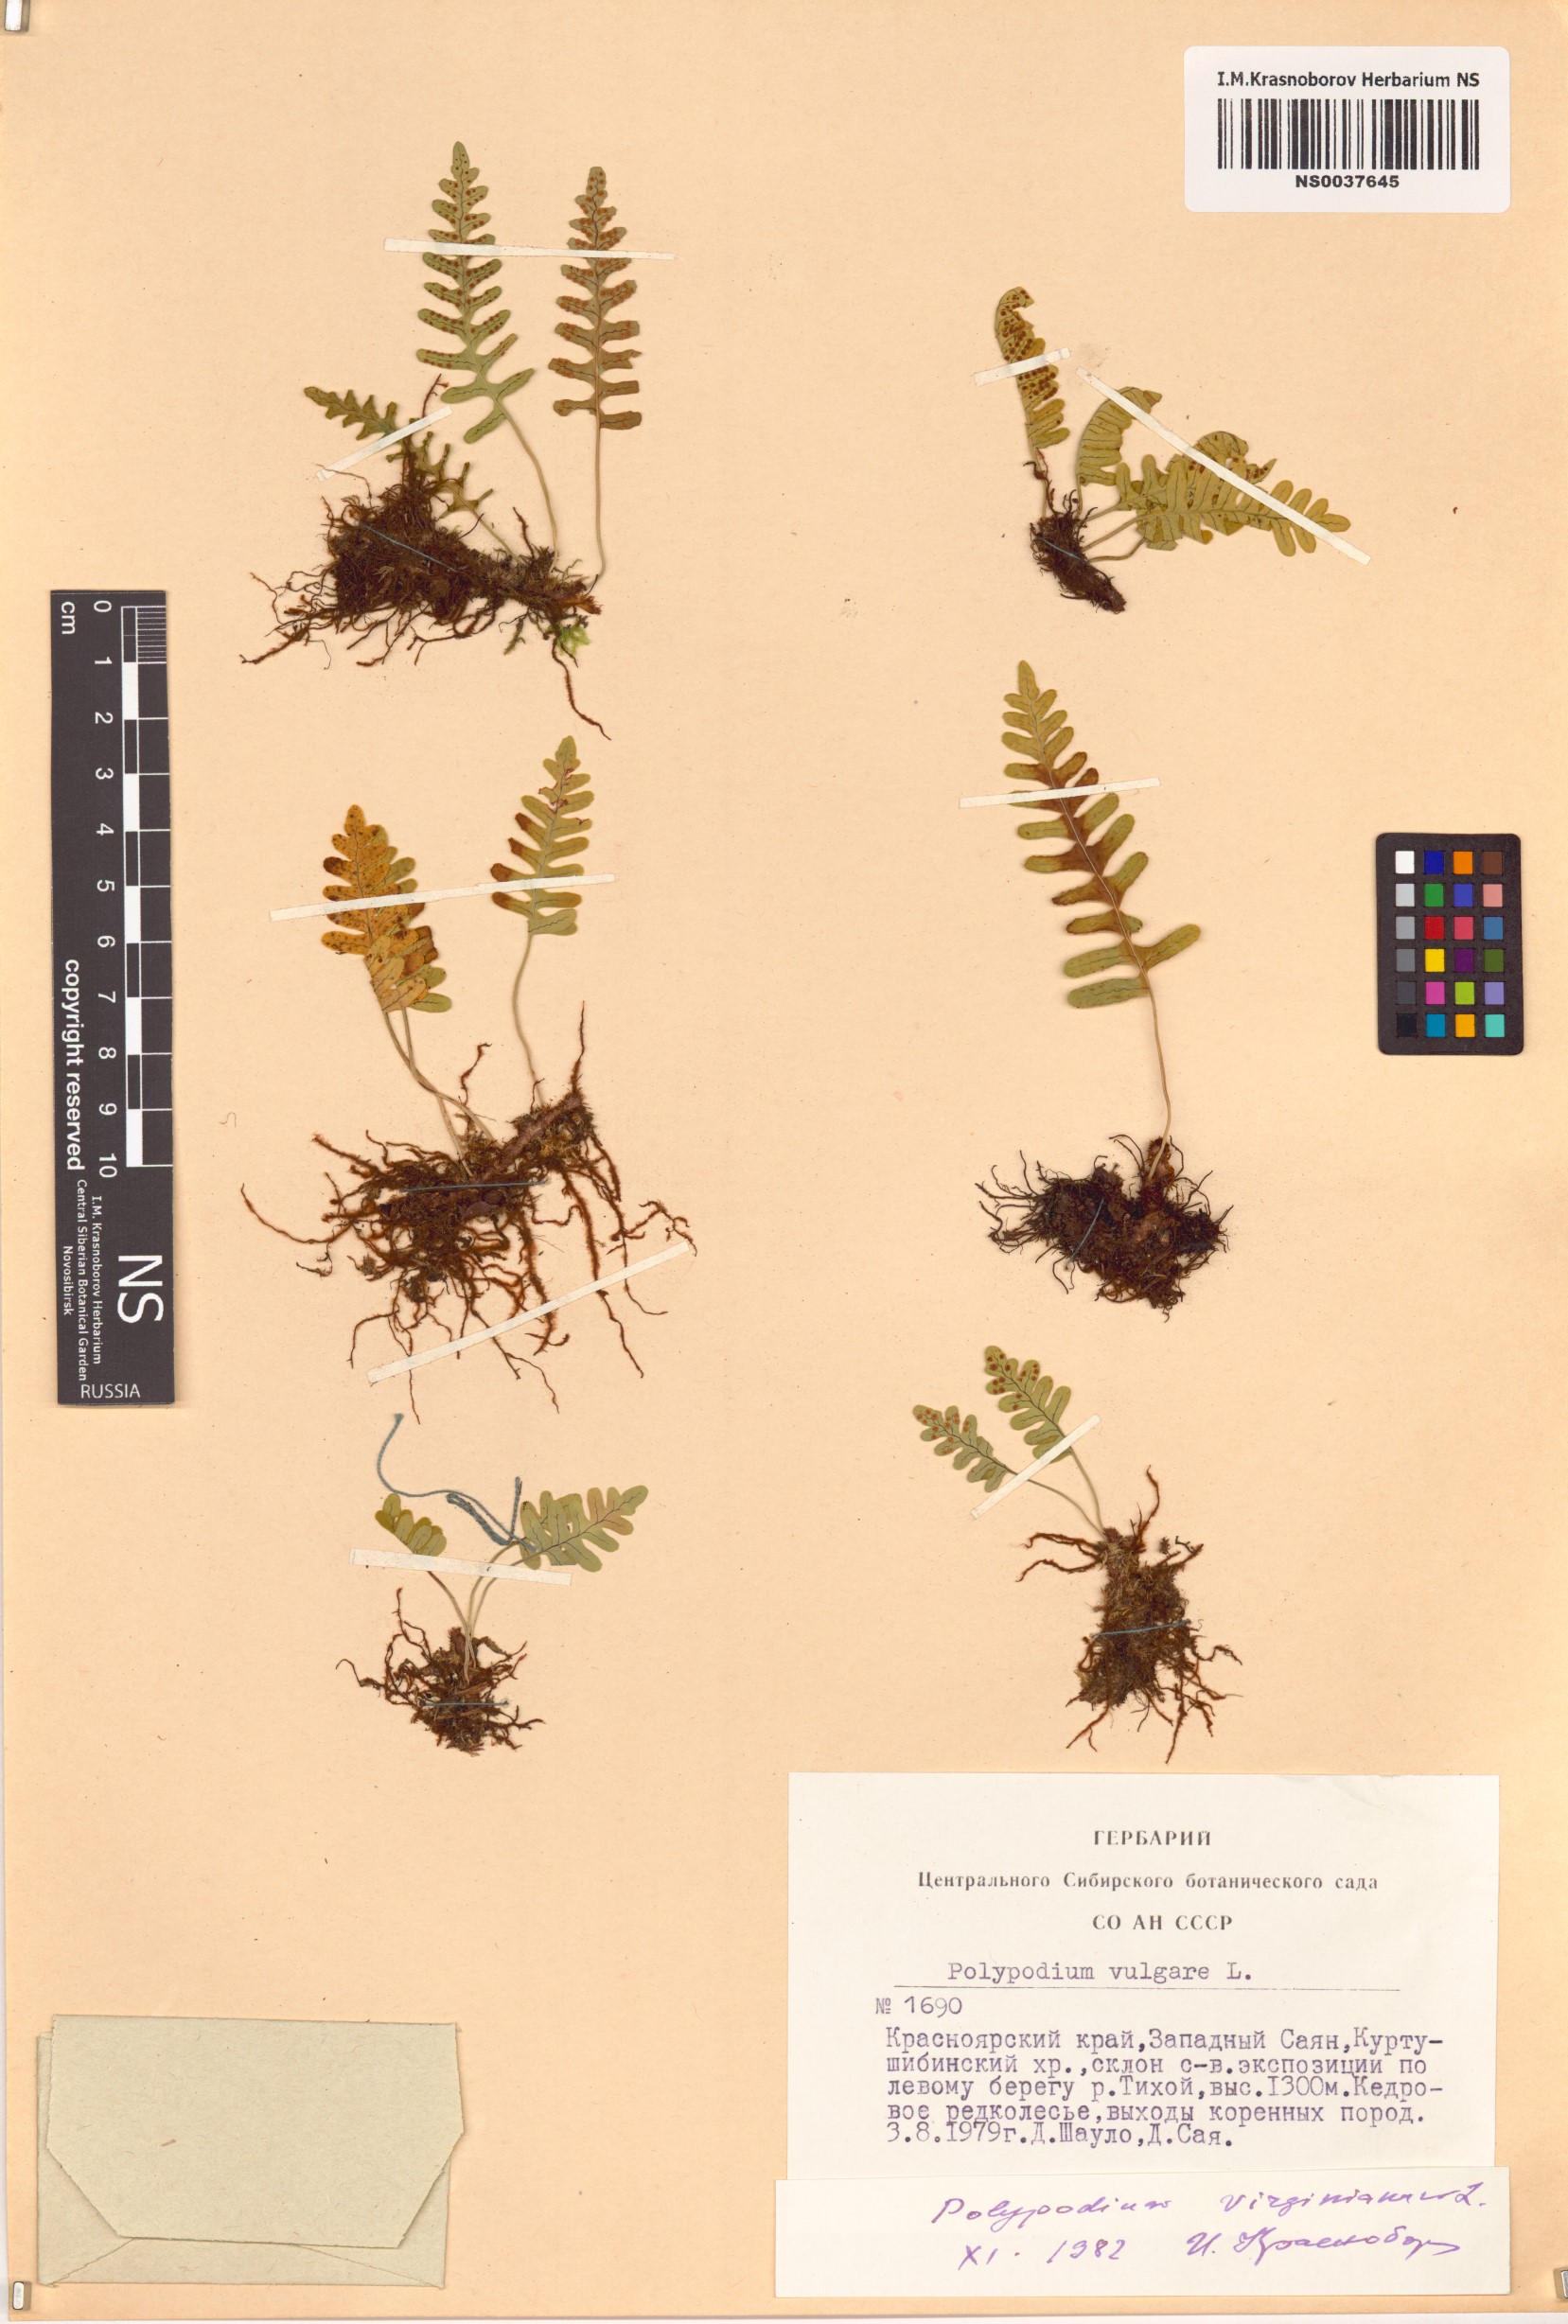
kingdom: Plantae
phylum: Tracheophyta
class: Polypodiopsida
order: Polypodiales
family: Polypodiaceae
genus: Polypodium
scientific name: Polypodium virginianum
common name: American wall fern
